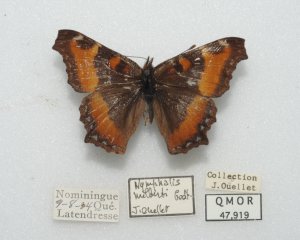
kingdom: Animalia
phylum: Arthropoda
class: Insecta
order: Lepidoptera
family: Nymphalidae
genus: Aglais
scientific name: Aglais milberti
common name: Milbert's Tortoiseshell
